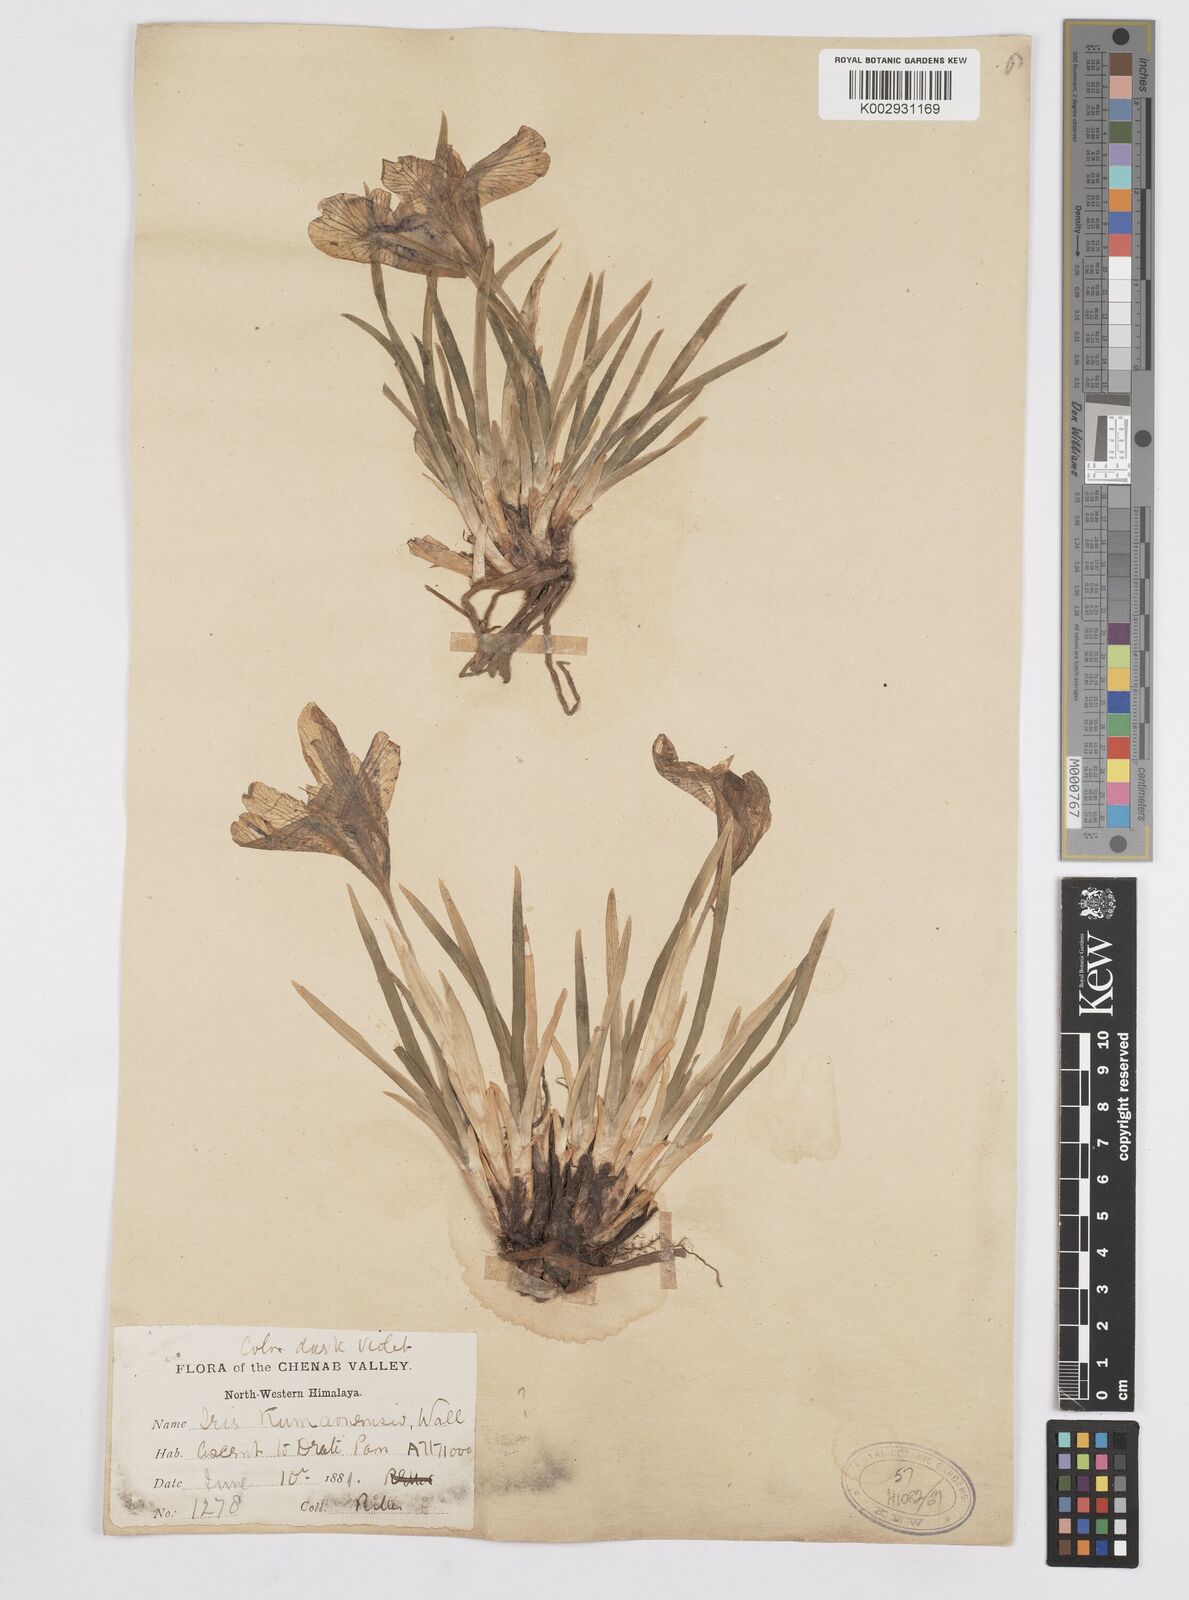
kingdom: Plantae
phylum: Tracheophyta
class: Liliopsida
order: Asparagales
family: Iridaceae
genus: Iris
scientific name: Iris kemaonensis
